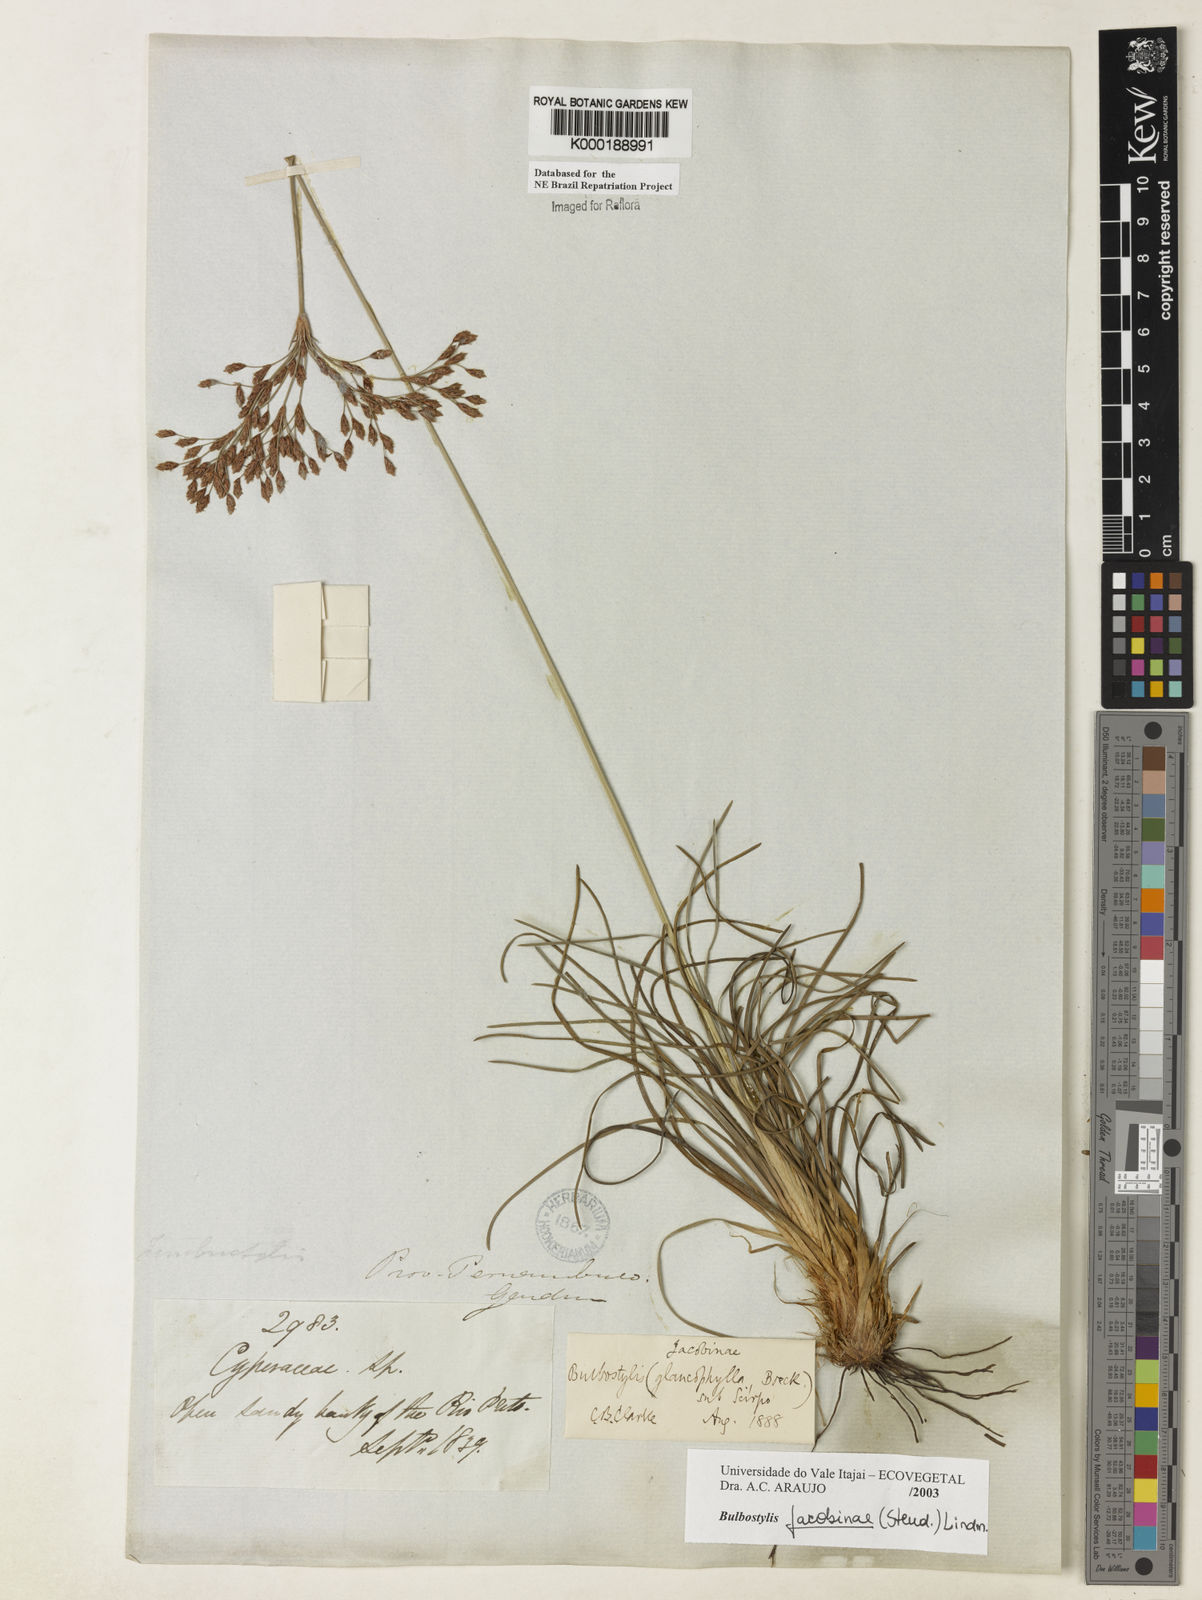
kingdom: Plantae
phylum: Tracheophyta
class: Liliopsida
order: Poales
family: Cyperaceae
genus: Bulbostylis
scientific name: Bulbostylis jacobinae
